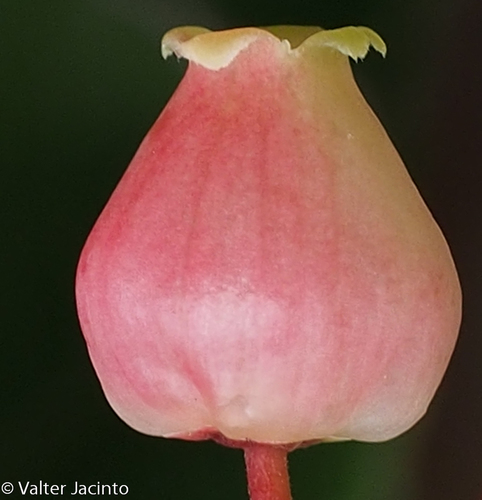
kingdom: Plantae
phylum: Tracheophyta
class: Magnoliopsida
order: Ericales
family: Ericaceae
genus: Arbutus
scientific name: Arbutus unedo
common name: Strawberry-tree
